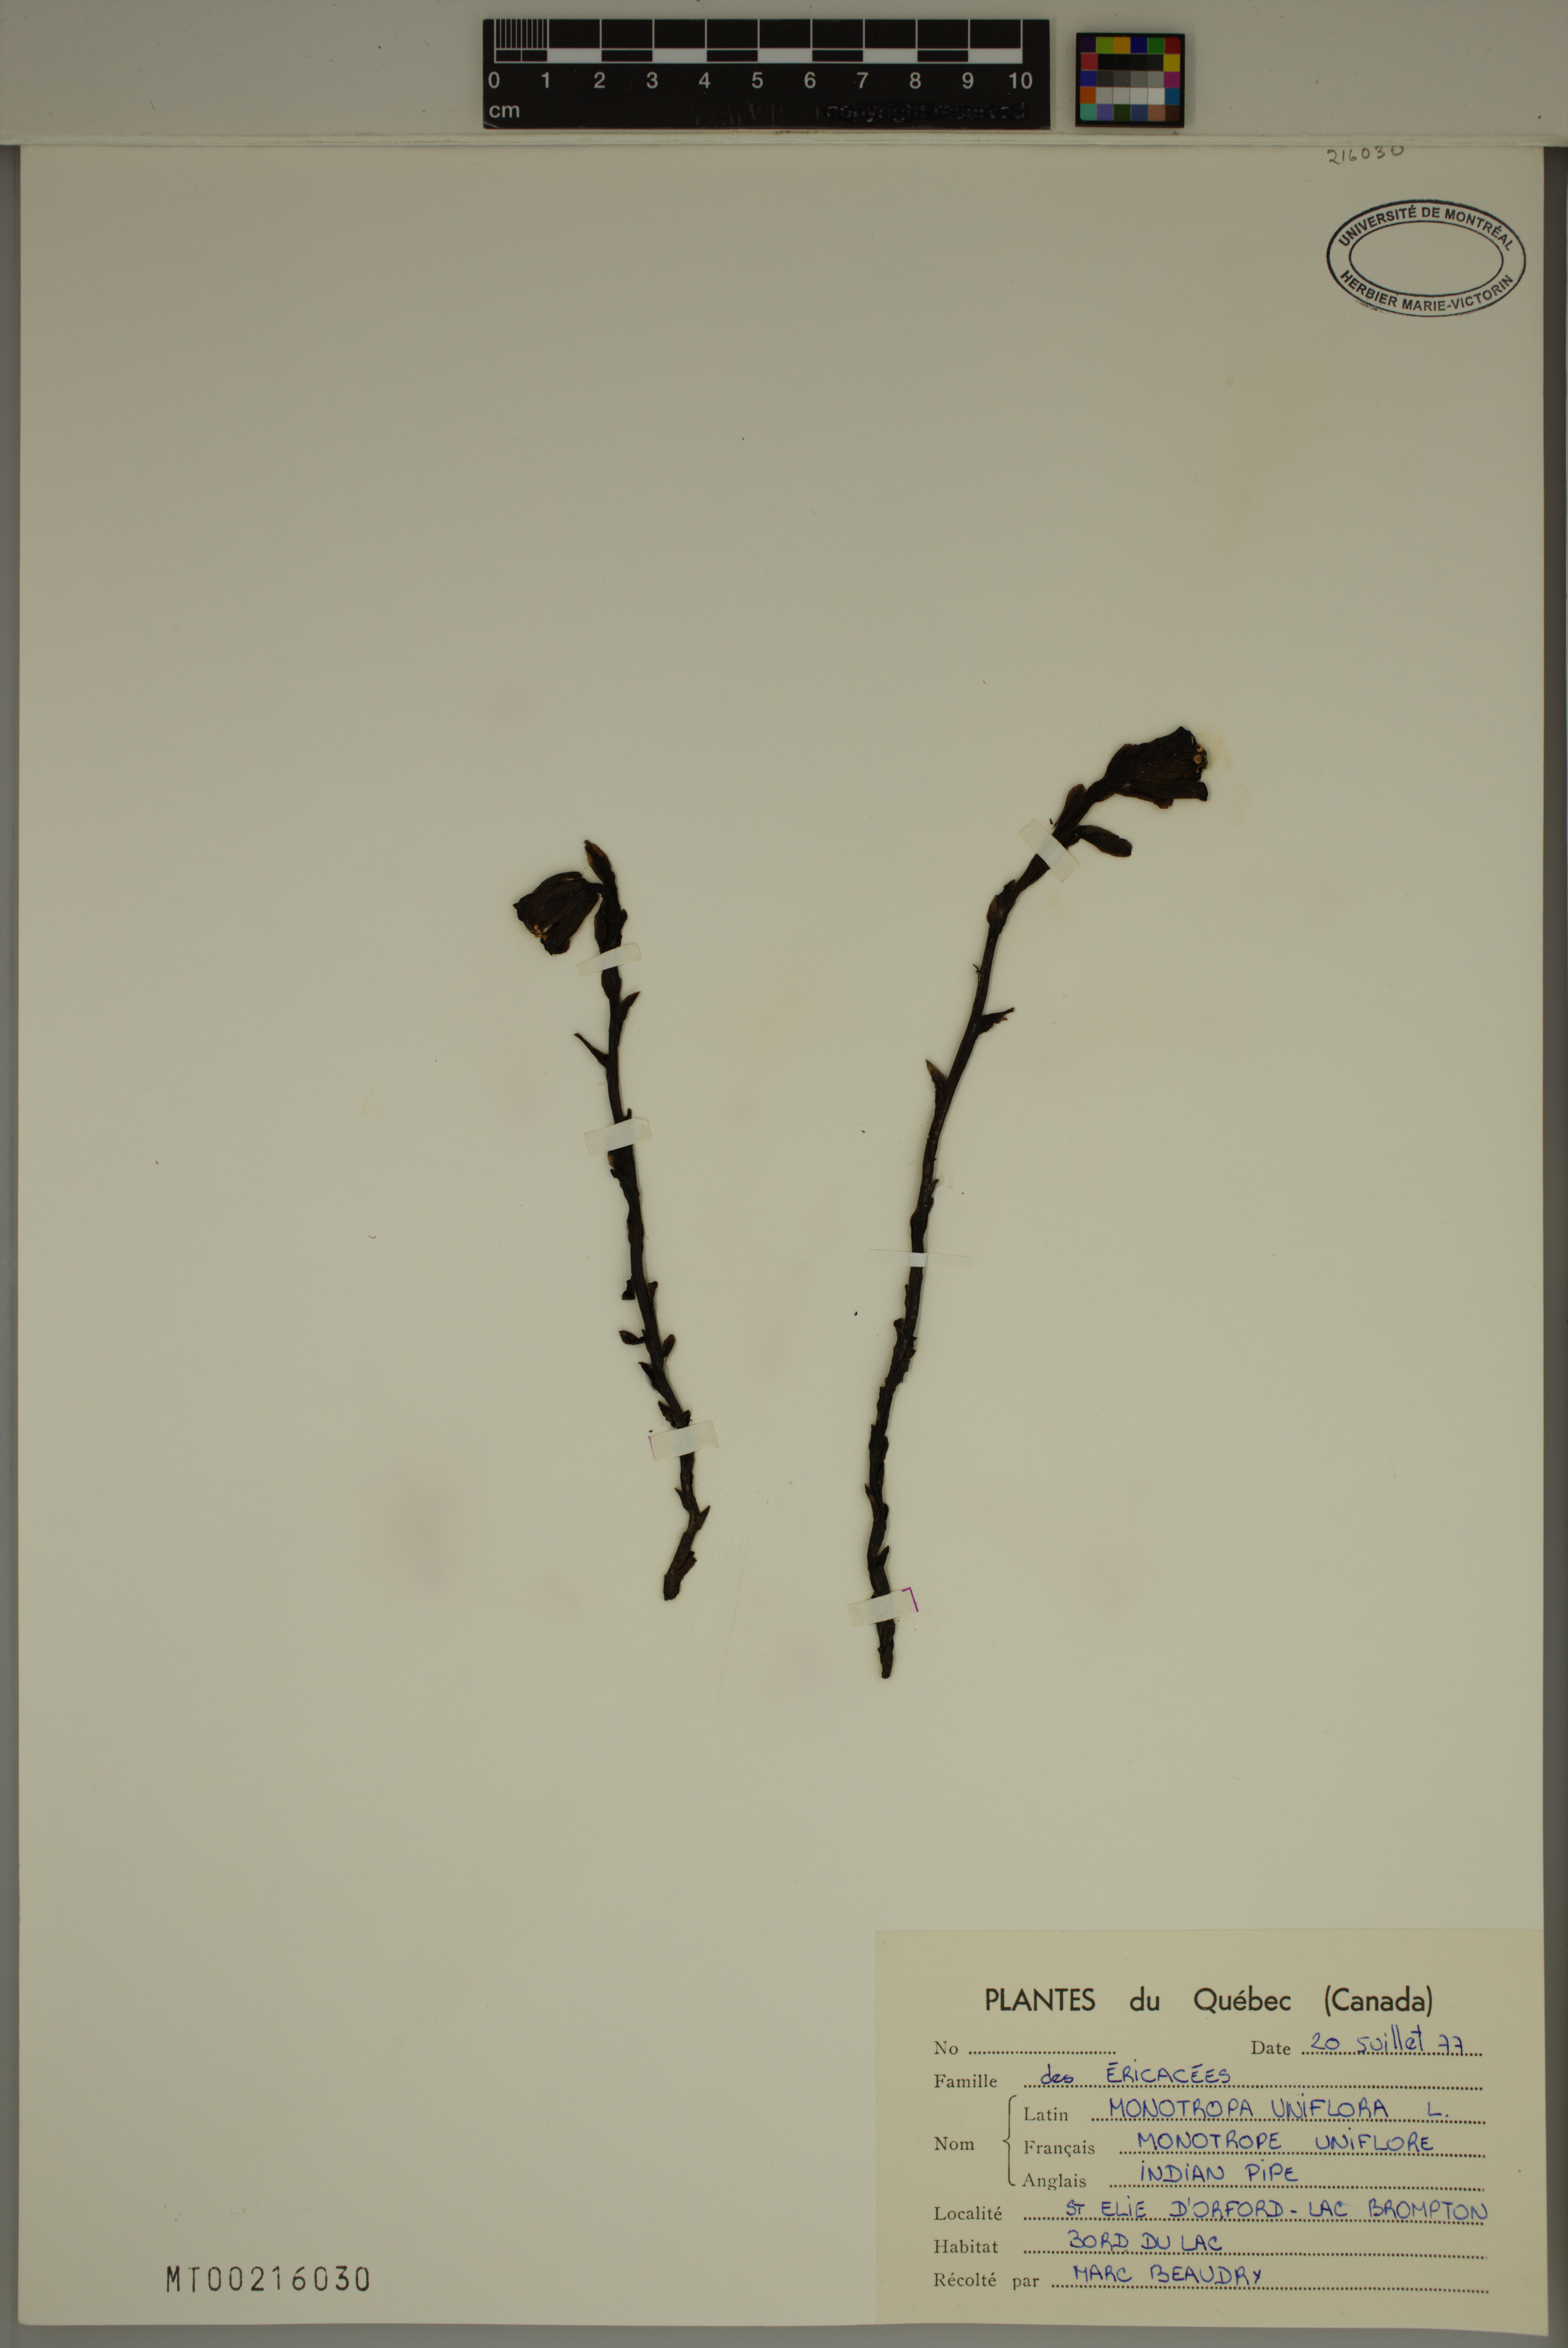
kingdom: Plantae
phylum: Tracheophyta
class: Magnoliopsida
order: Ericales
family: Ericaceae
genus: Monotropa
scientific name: Monotropa uniflora
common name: Convulsion root
